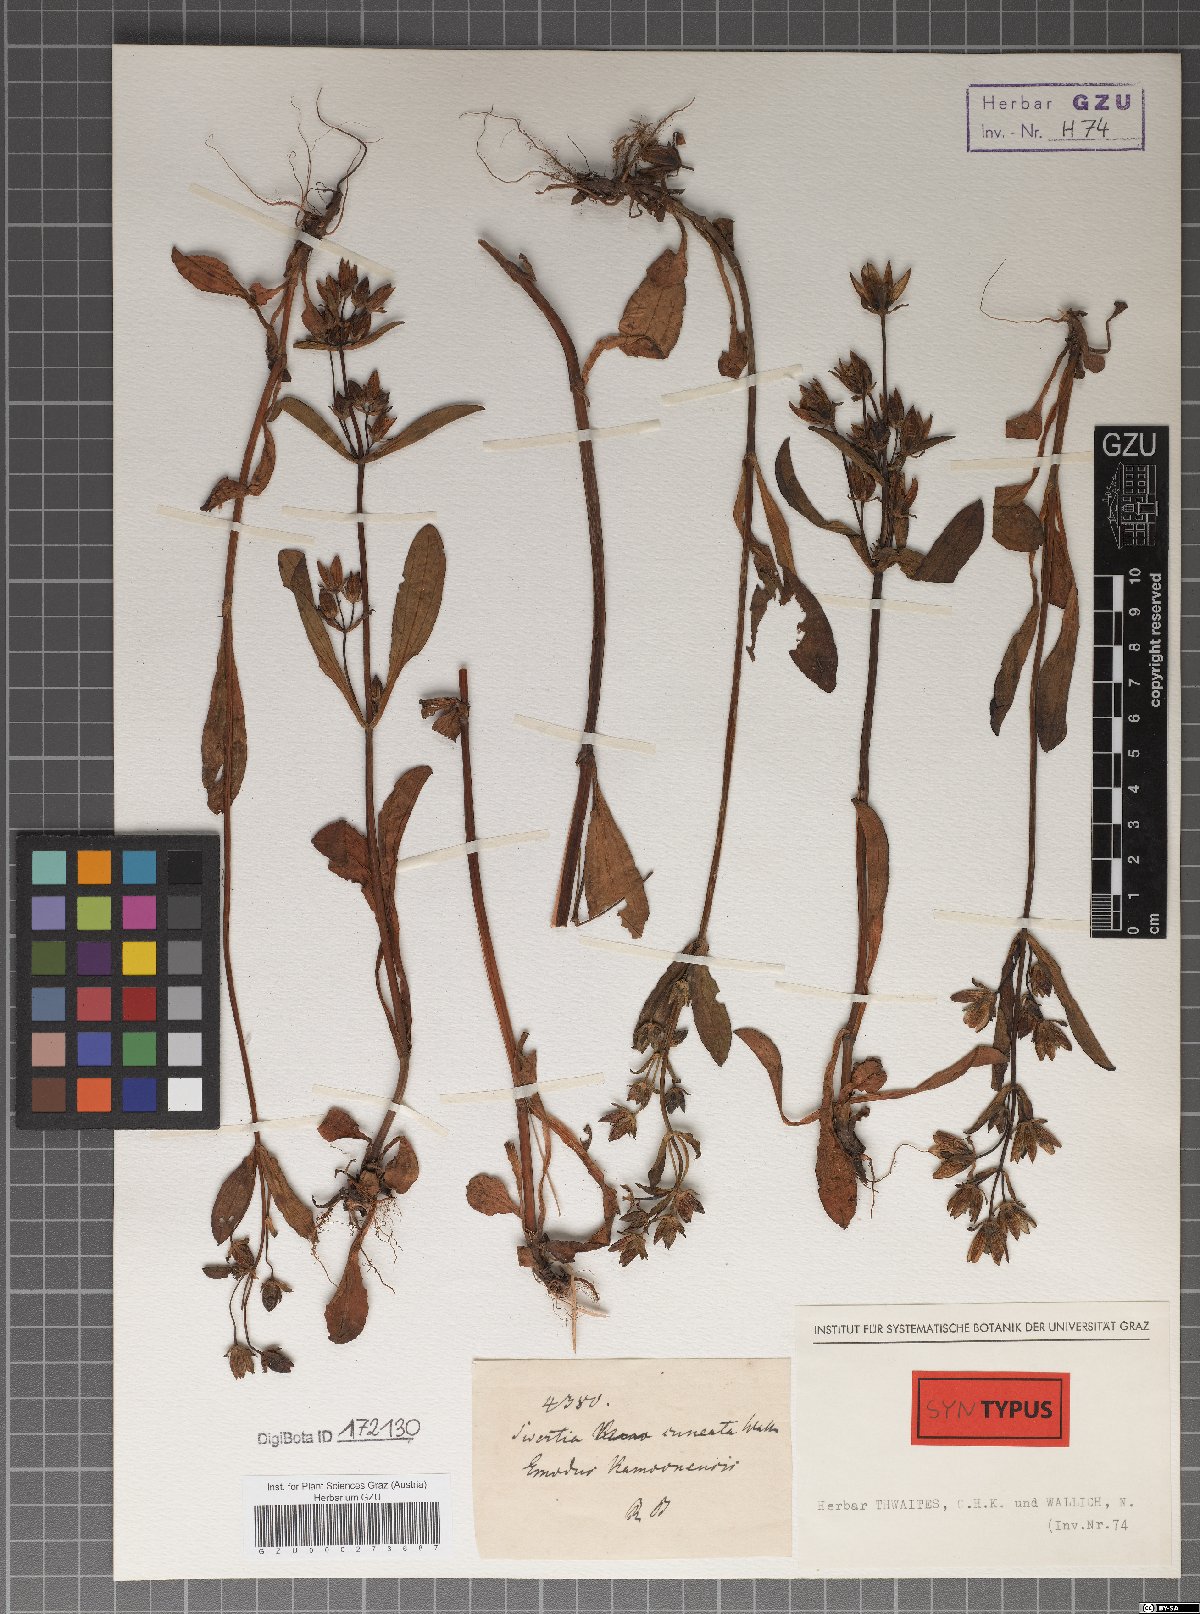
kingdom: Plantae
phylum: Tracheophyta
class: Magnoliopsida
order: Gentianales
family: Gentianaceae
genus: Swertia
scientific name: Swertia cuneata
